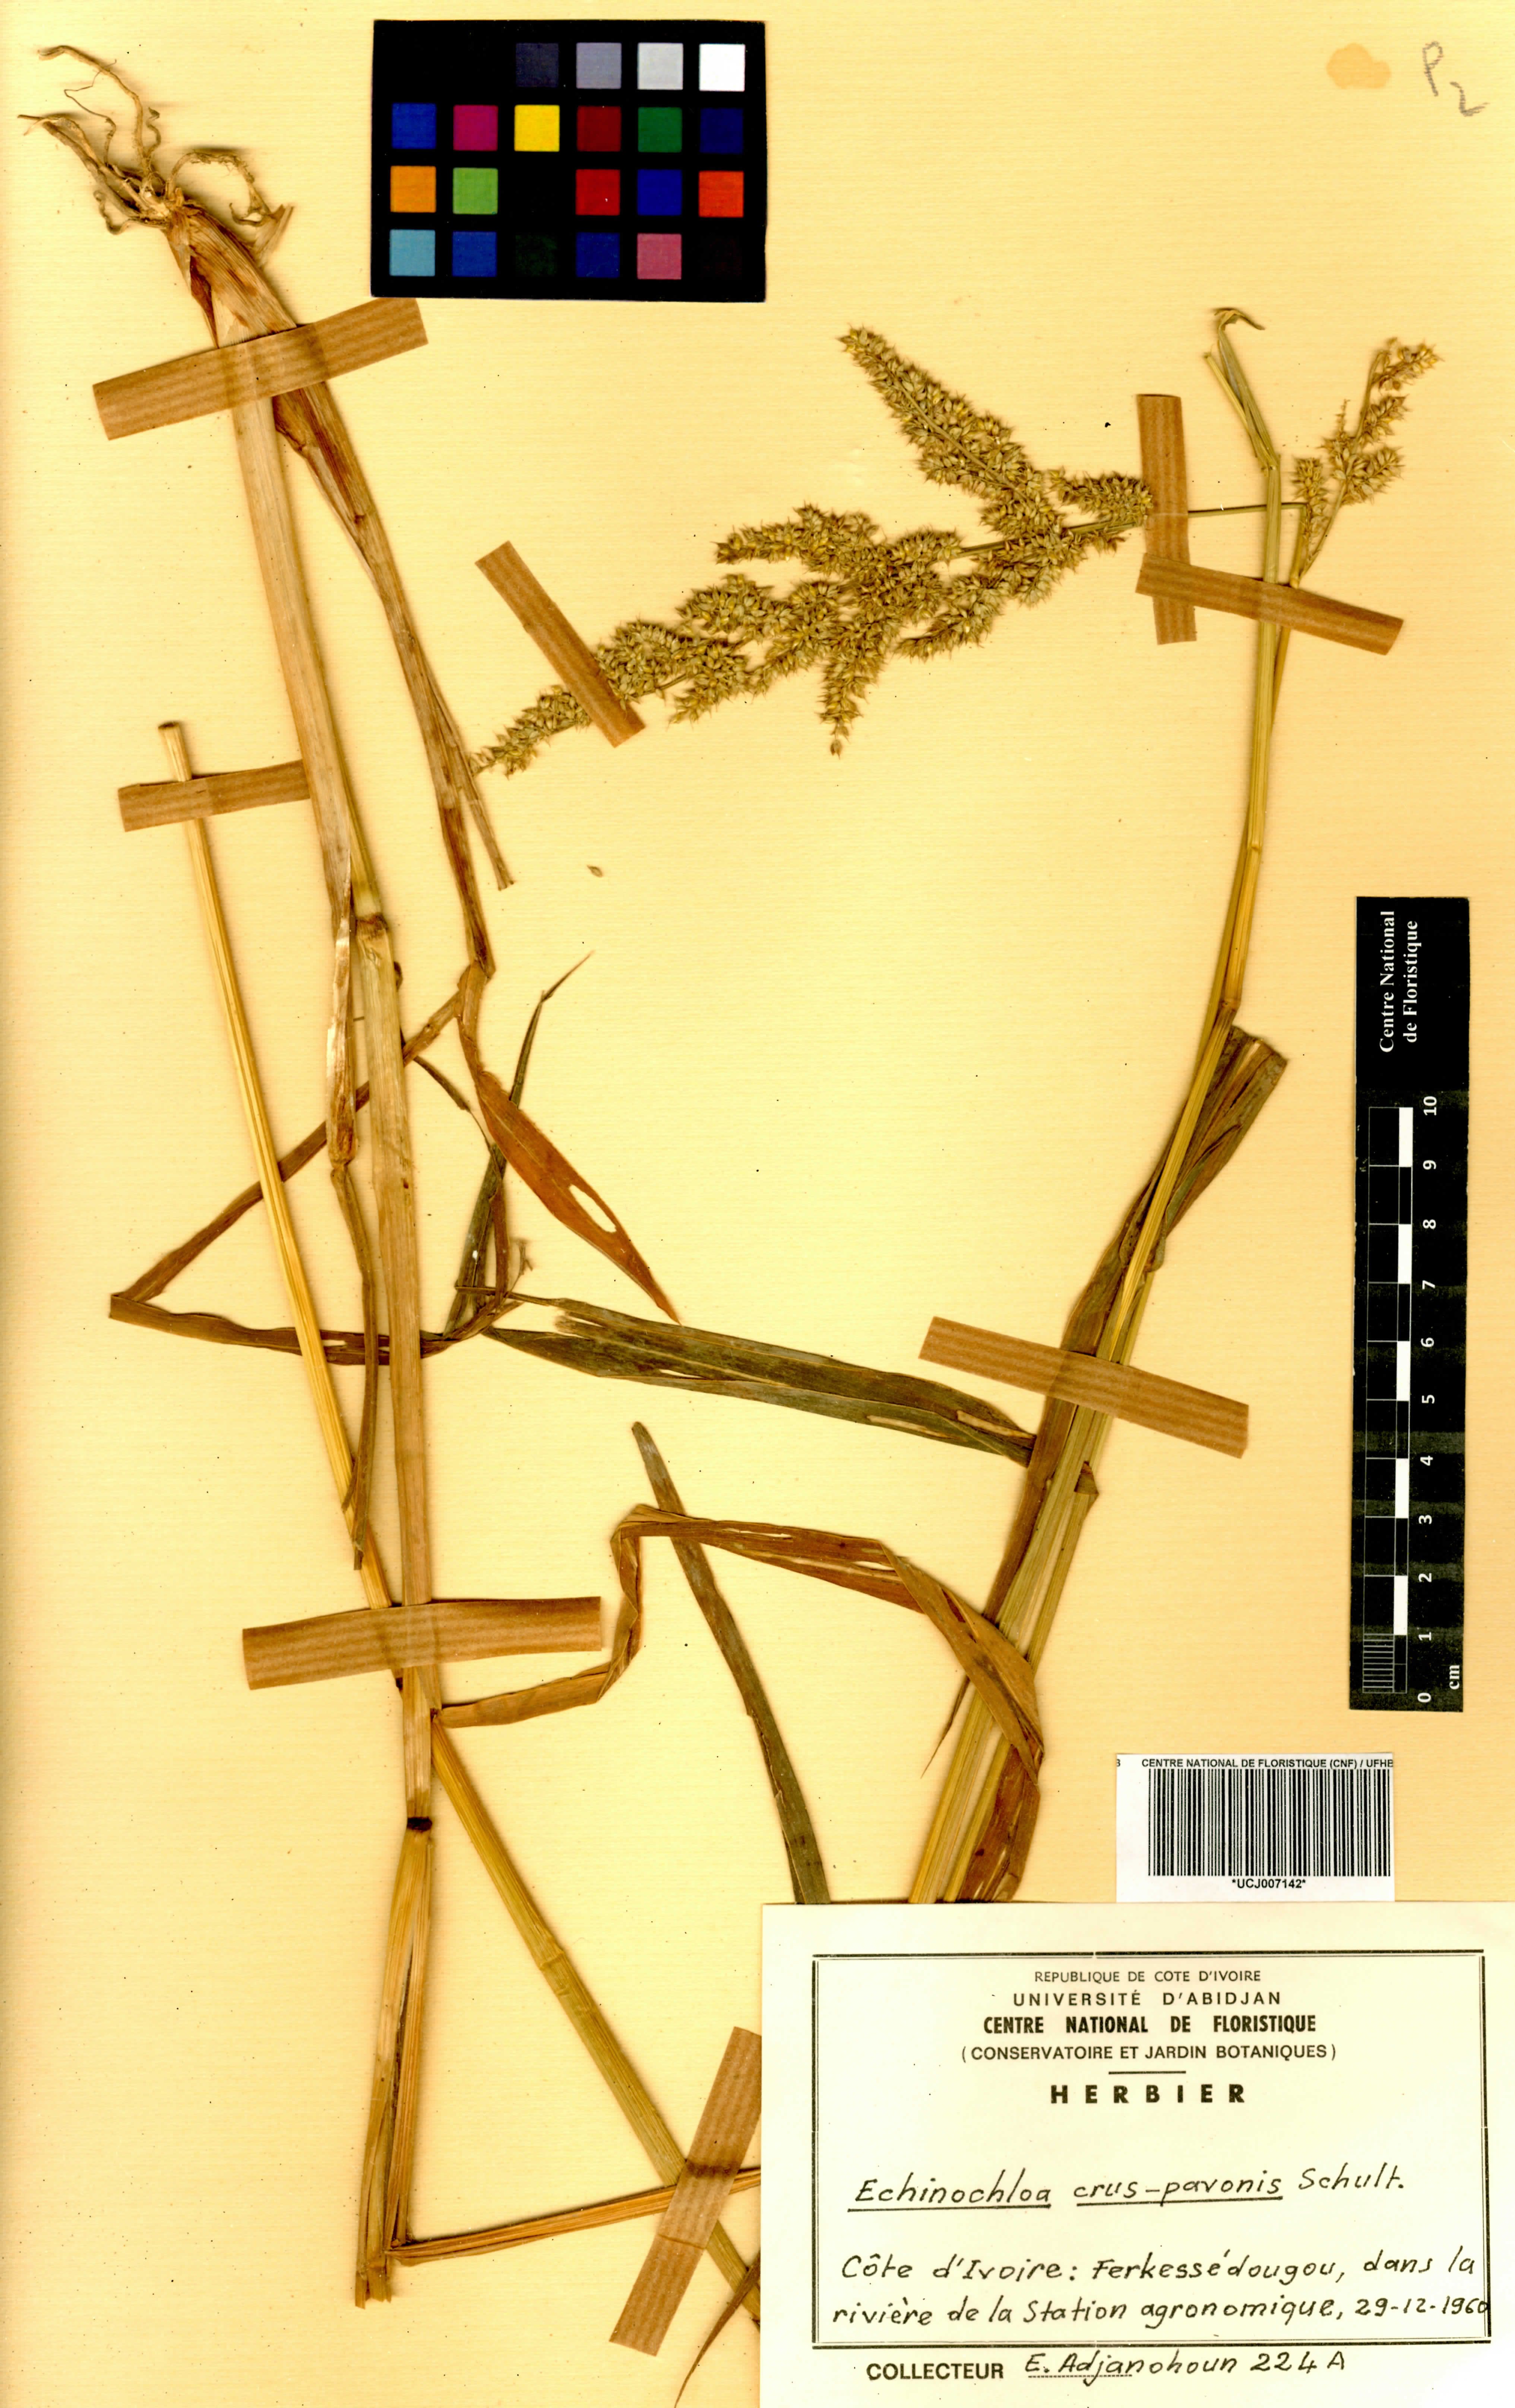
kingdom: Plantae
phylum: Tracheophyta
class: Liliopsida
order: Poales
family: Poaceae
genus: Echinochloa
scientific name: Echinochloa crus-pavonis
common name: Gulf cockspur grass
